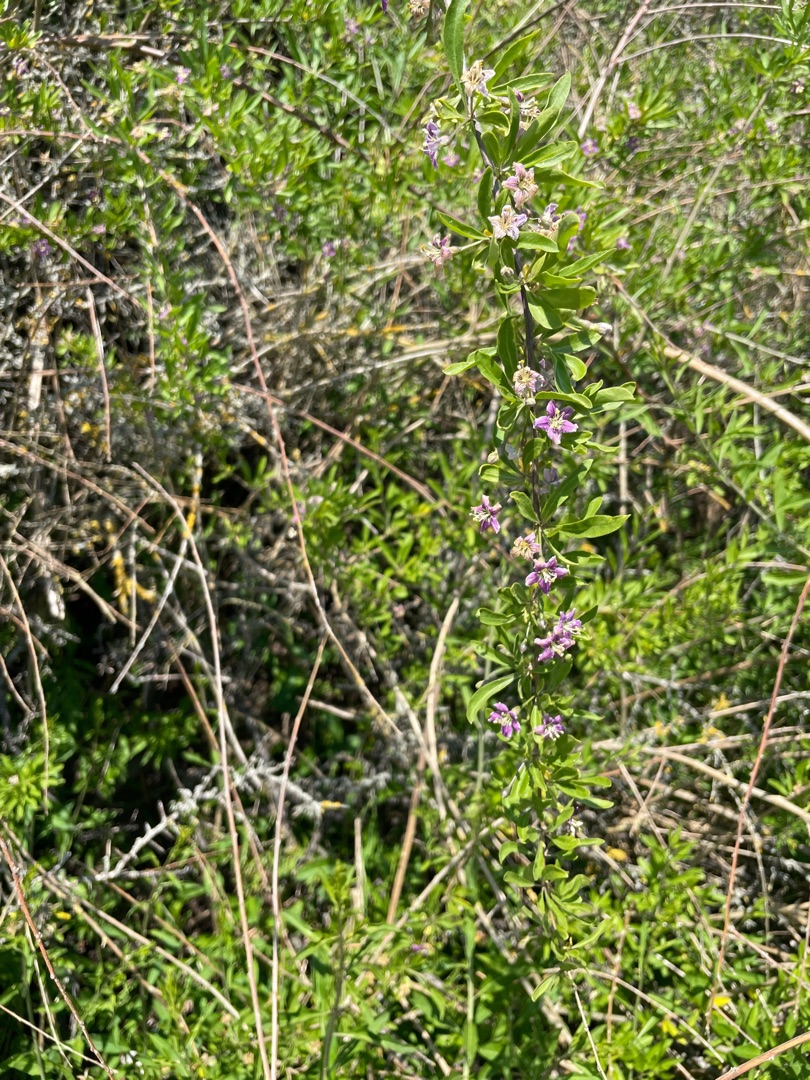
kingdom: Plantae
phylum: Tracheophyta
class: Magnoliopsida
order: Solanales
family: Solanaceae
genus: Lycium
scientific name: Lycium barbarum
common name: Bukketorn
